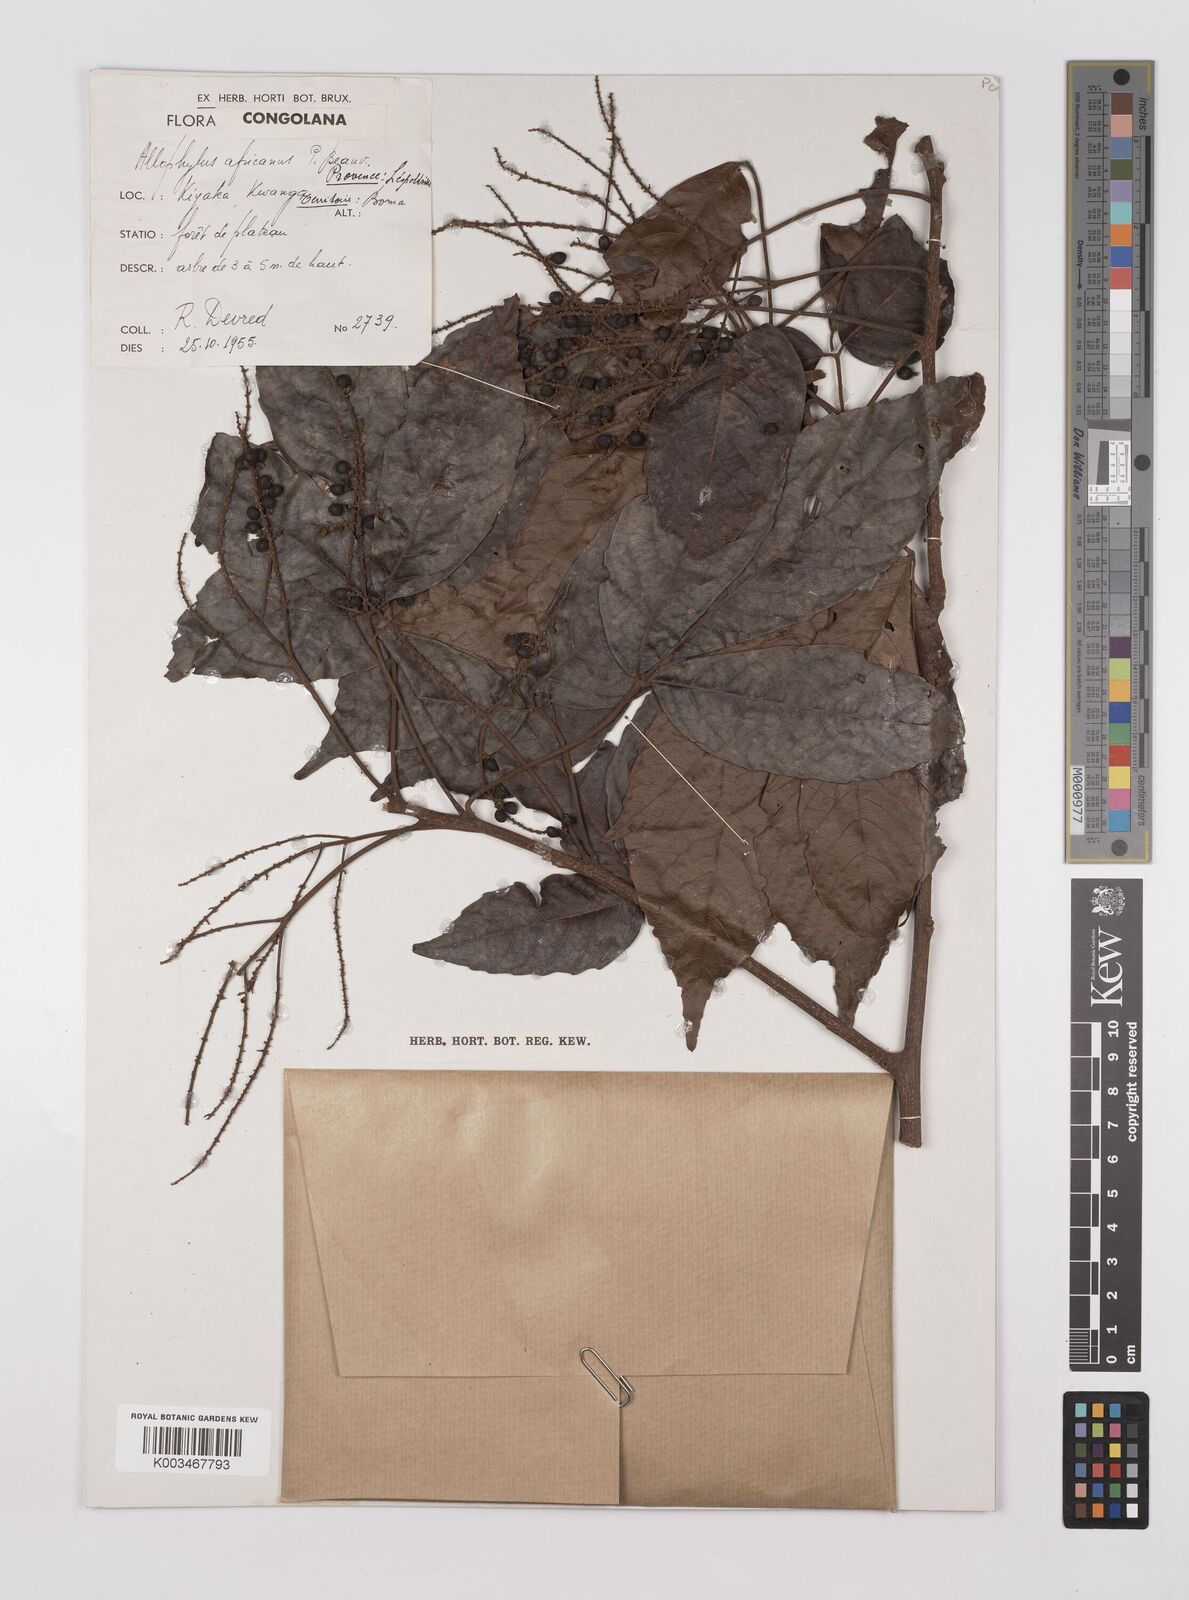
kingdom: Plantae
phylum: Tracheophyta
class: Magnoliopsida
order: Sapindales
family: Sapindaceae
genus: Allophylus
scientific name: Allophylus africanus
